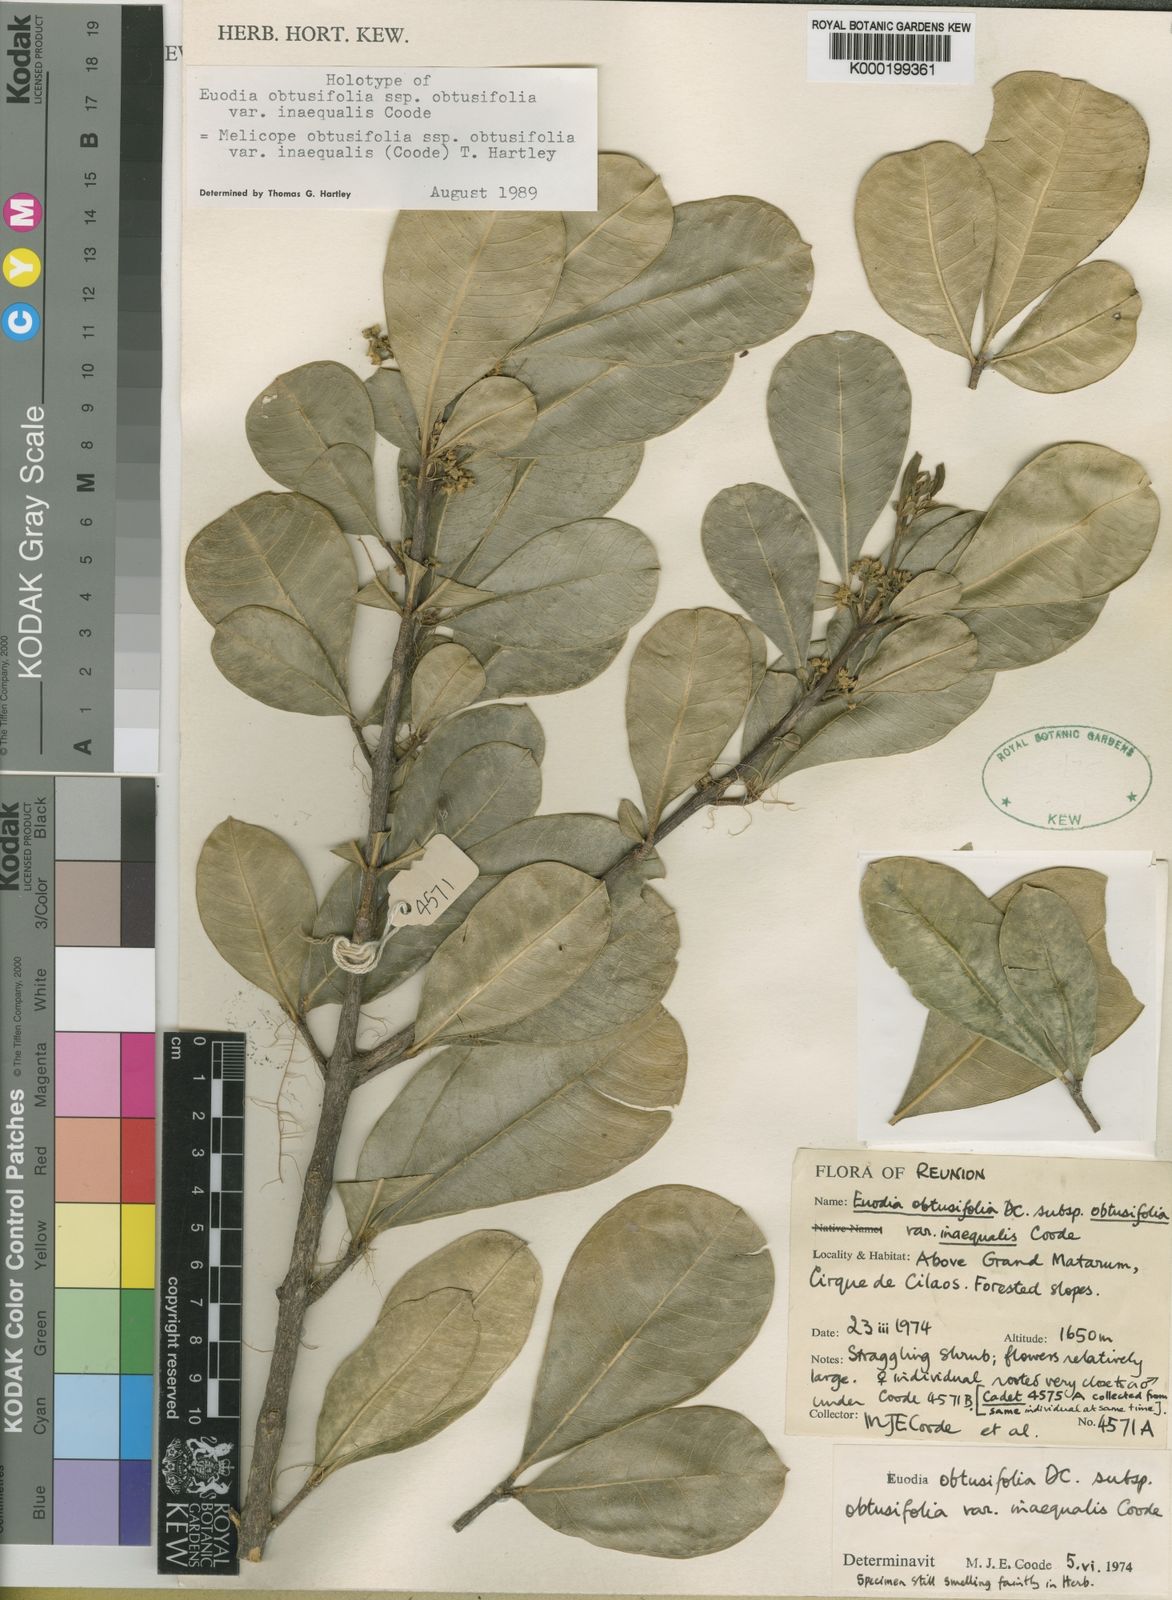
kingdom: Plantae
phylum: Tracheophyta
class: Magnoliopsida
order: Sapindales
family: Rutaceae
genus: Melicope
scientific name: Melicope obtusifolia
